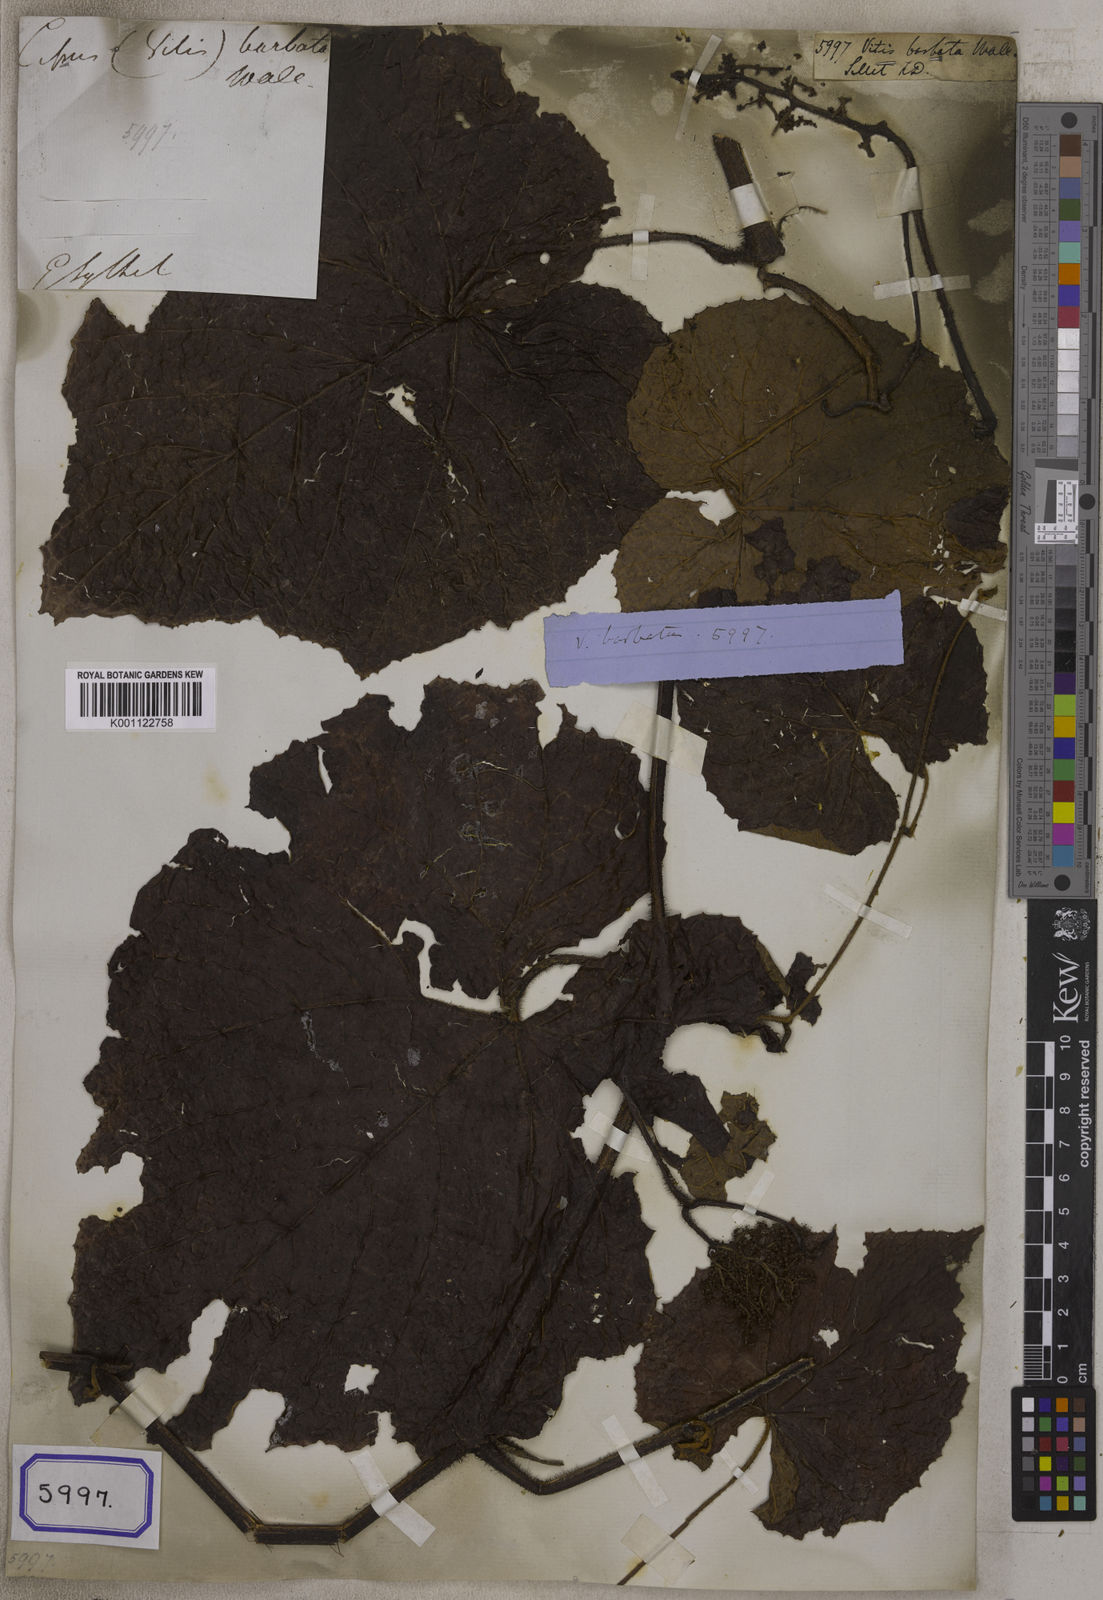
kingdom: Plantae
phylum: Tracheophyta
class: Magnoliopsida
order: Vitales
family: Vitaceae
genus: Ampelocissus
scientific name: Ampelocissus barbata
